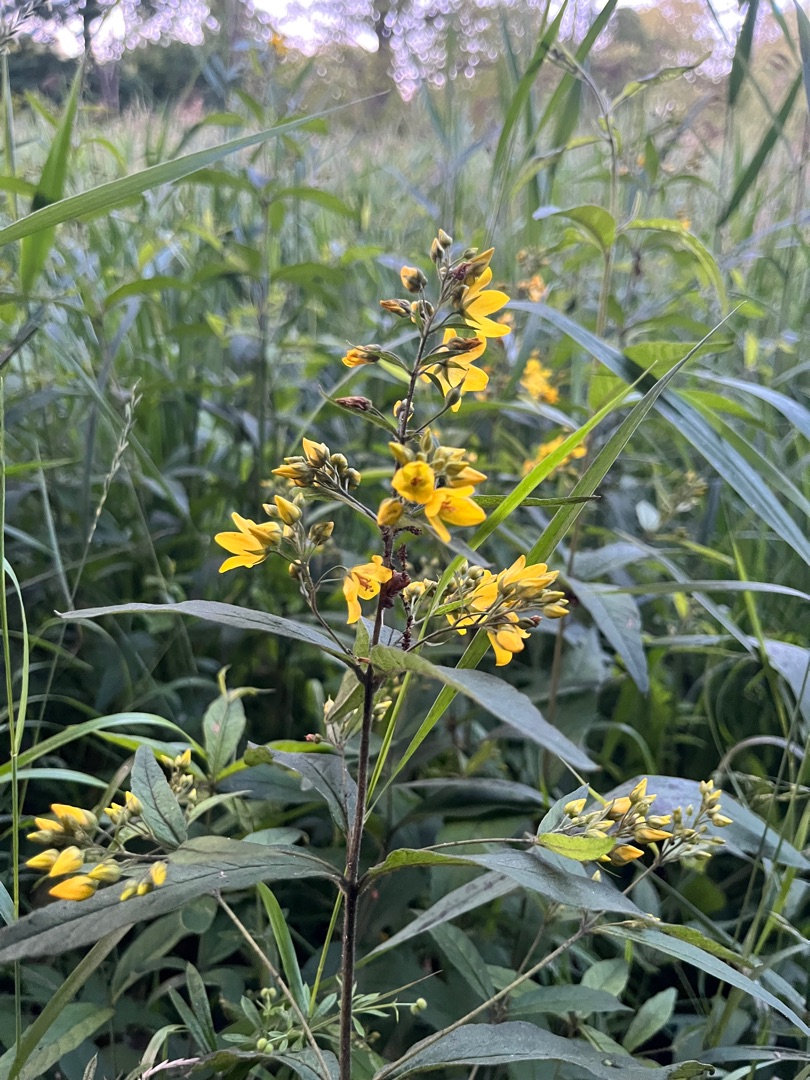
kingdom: Plantae
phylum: Tracheophyta
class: Magnoliopsida
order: Ericales
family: Primulaceae
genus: Lysimachia
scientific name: Lysimachia vulgaris
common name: Almindelig fredløs
